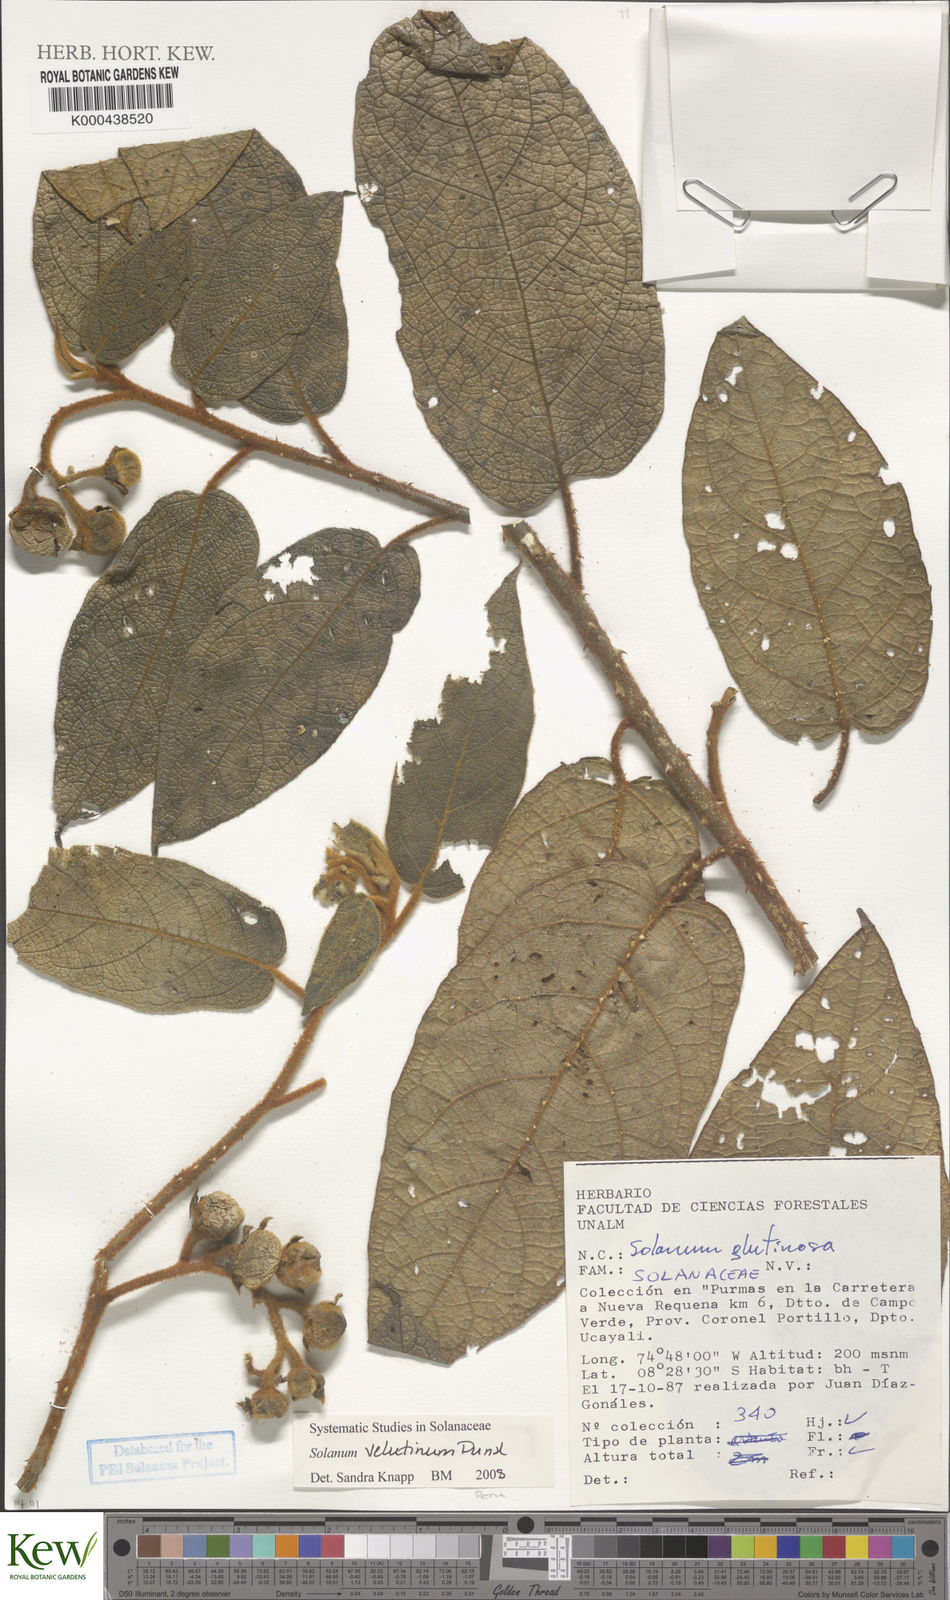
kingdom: Plantae
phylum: Tracheophyta
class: Magnoliopsida
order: Solanales
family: Solanaceae
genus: Solanum
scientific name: Solanum velutinum
